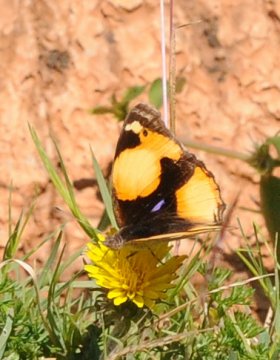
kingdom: Animalia
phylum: Arthropoda
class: Insecta
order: Lepidoptera
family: Nymphalidae
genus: Junonia
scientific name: Junonia hierta
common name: Yellow Pansy
